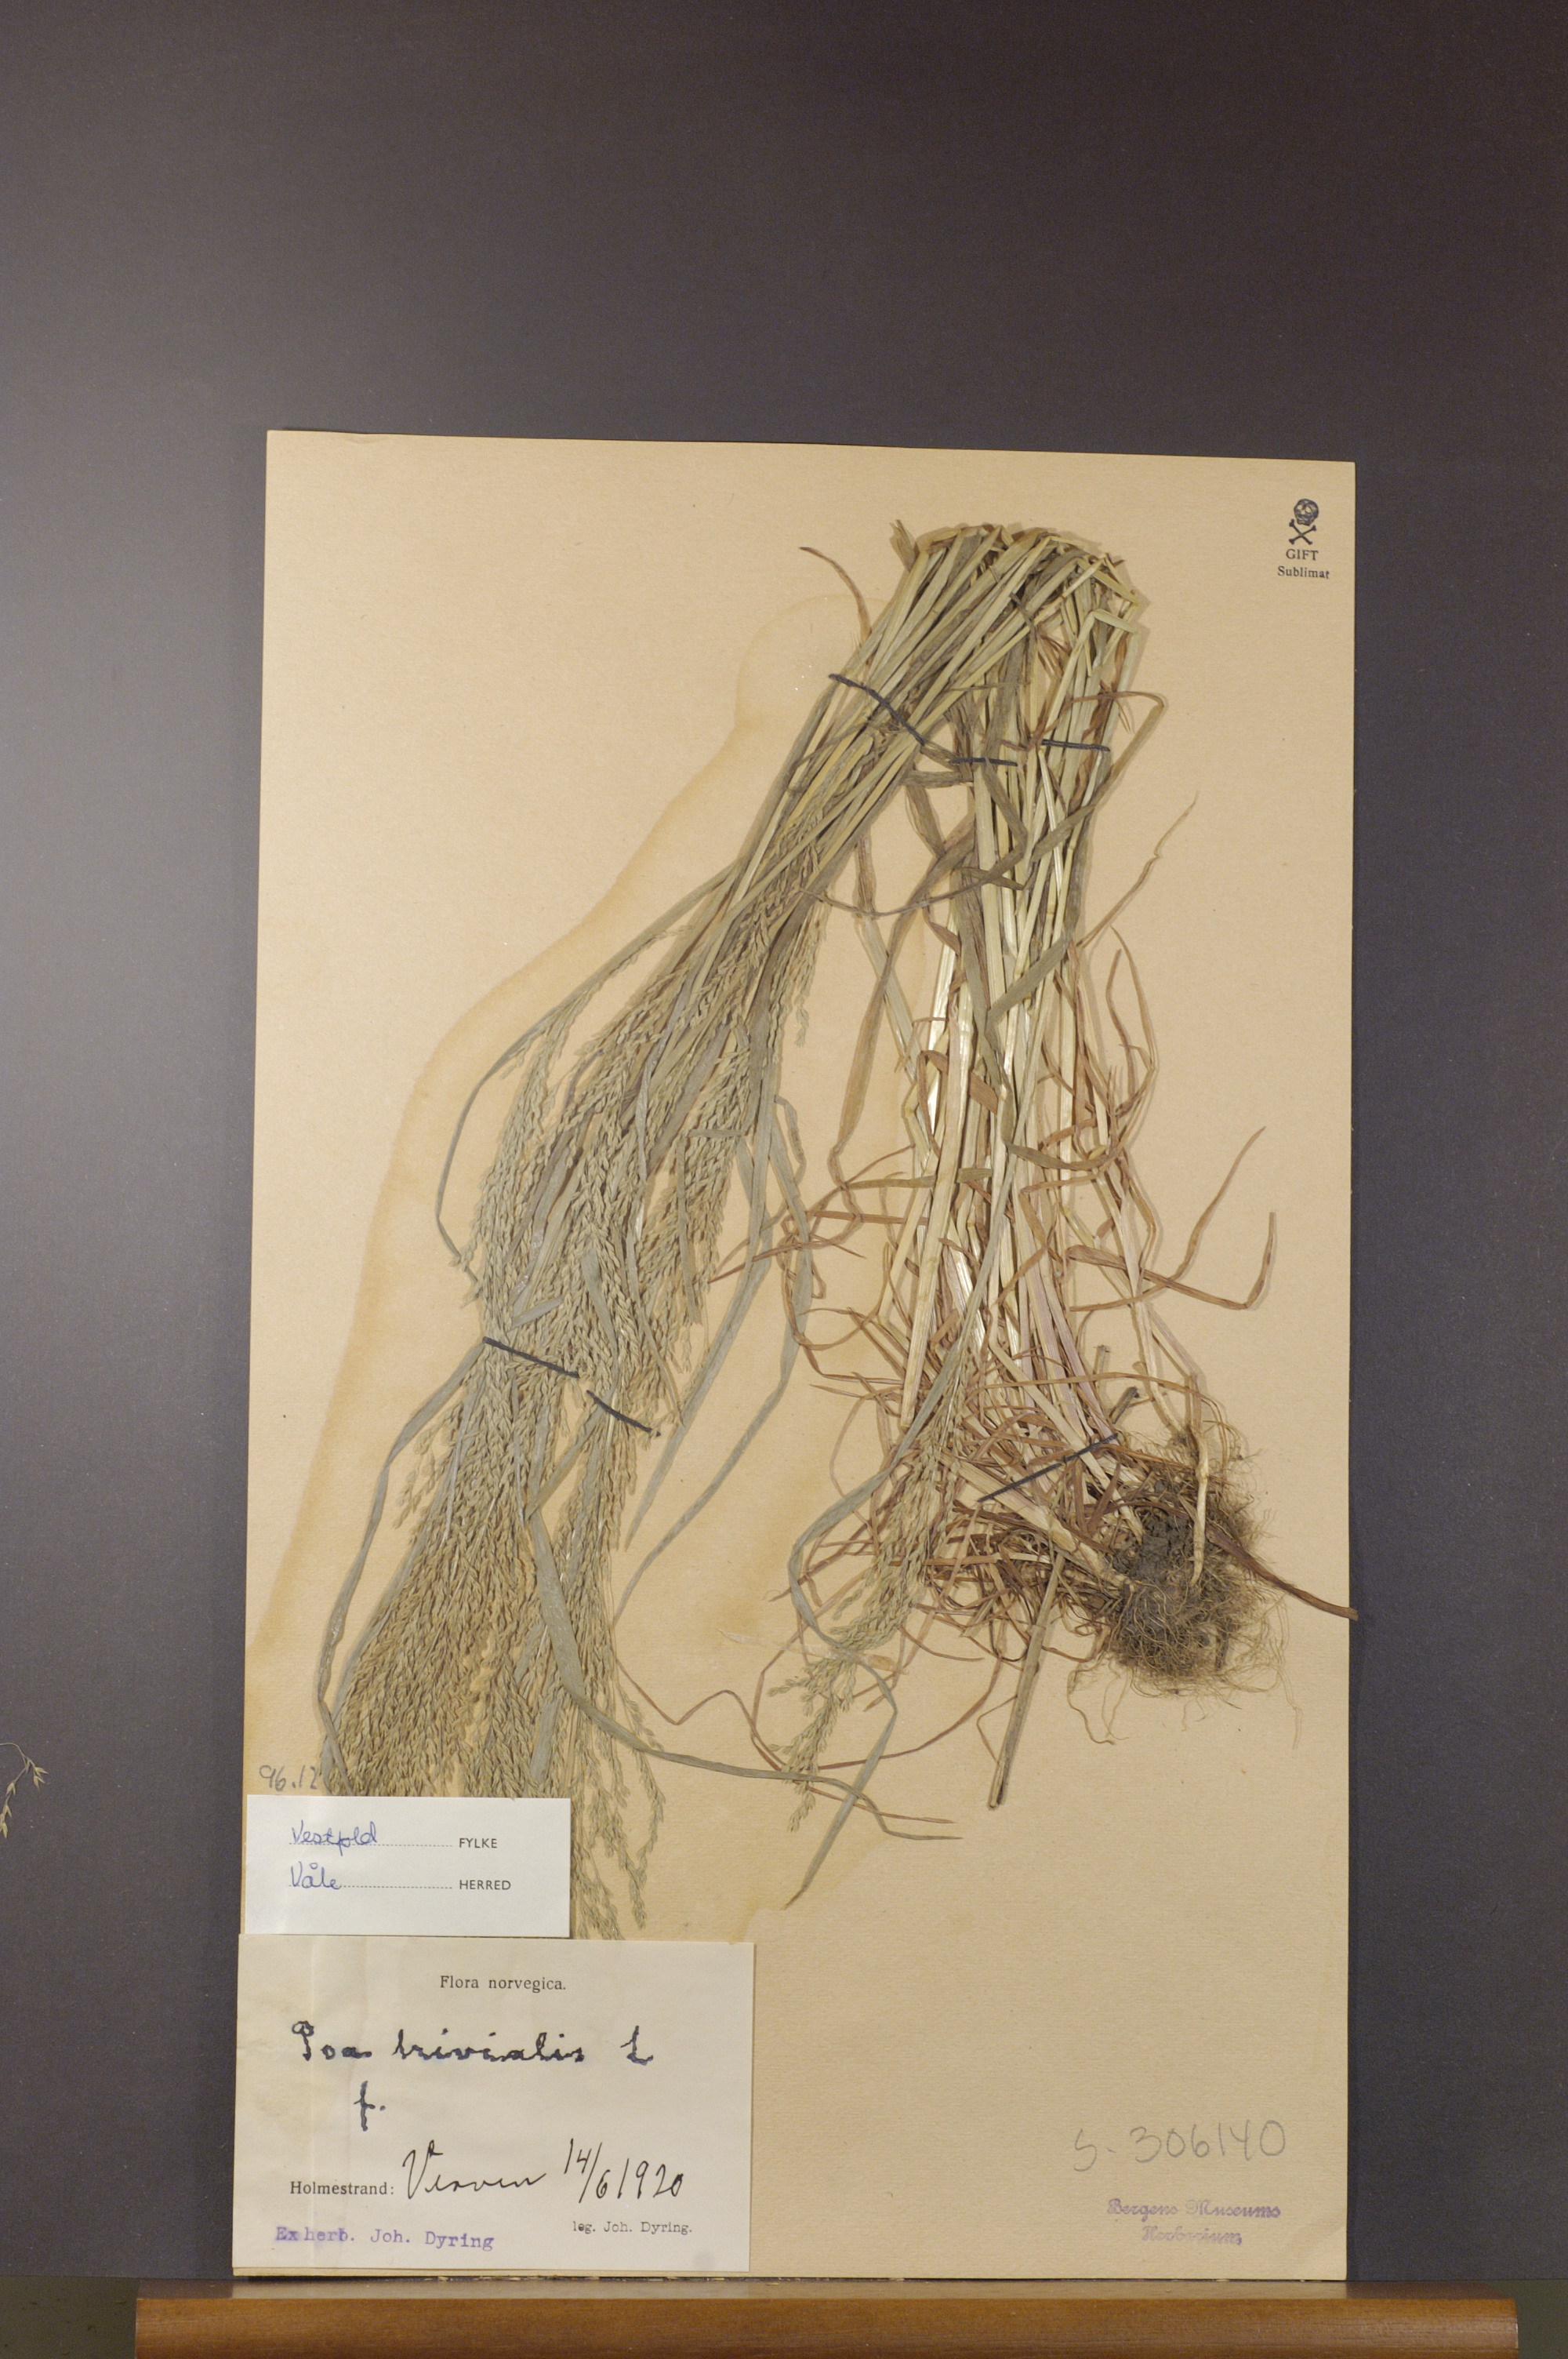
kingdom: Plantae
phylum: Tracheophyta
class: Liliopsida
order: Poales
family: Poaceae
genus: Poa
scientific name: Poa trivialis
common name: Rough bluegrass
